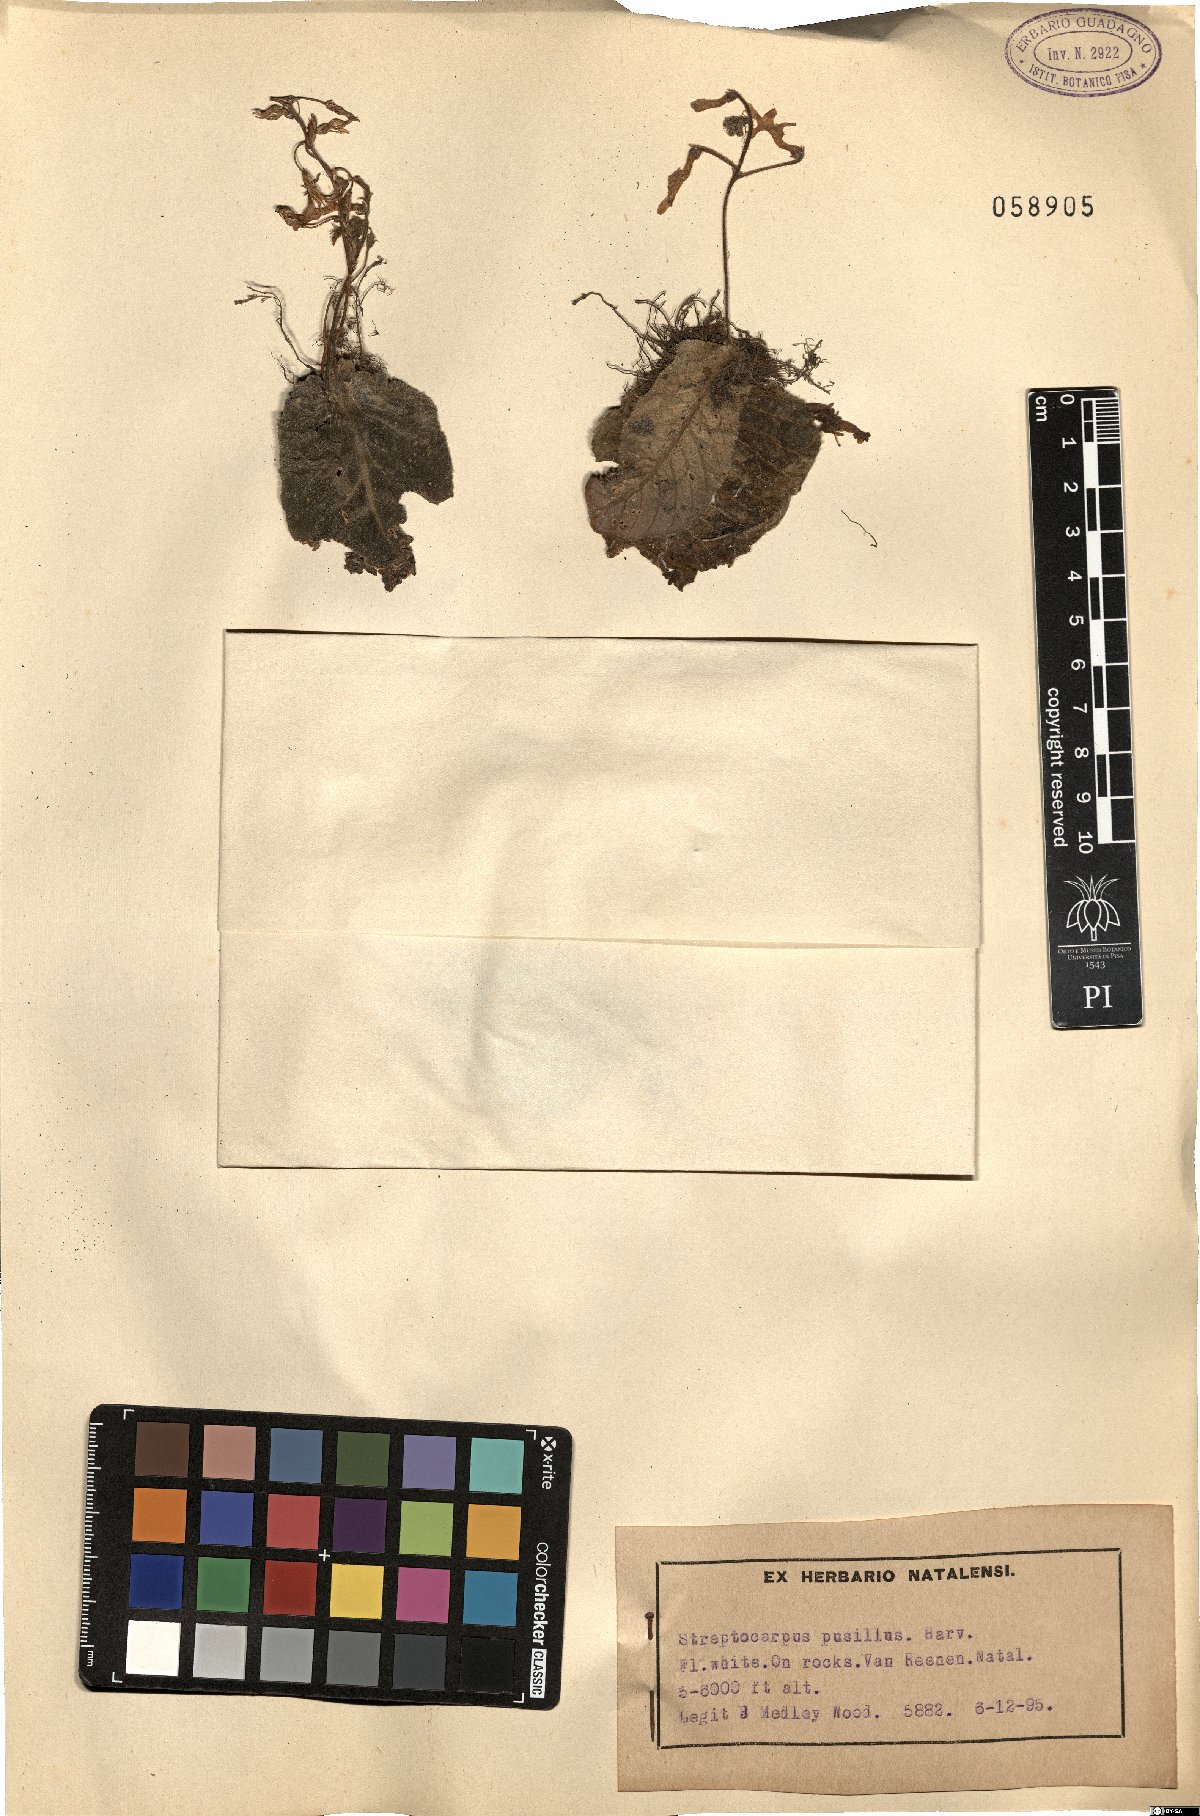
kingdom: Plantae
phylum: Tracheophyta
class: Magnoliopsida
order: Lamiales
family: Gesneriaceae
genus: Streptocarpus
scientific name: Streptocarpus pusillus
